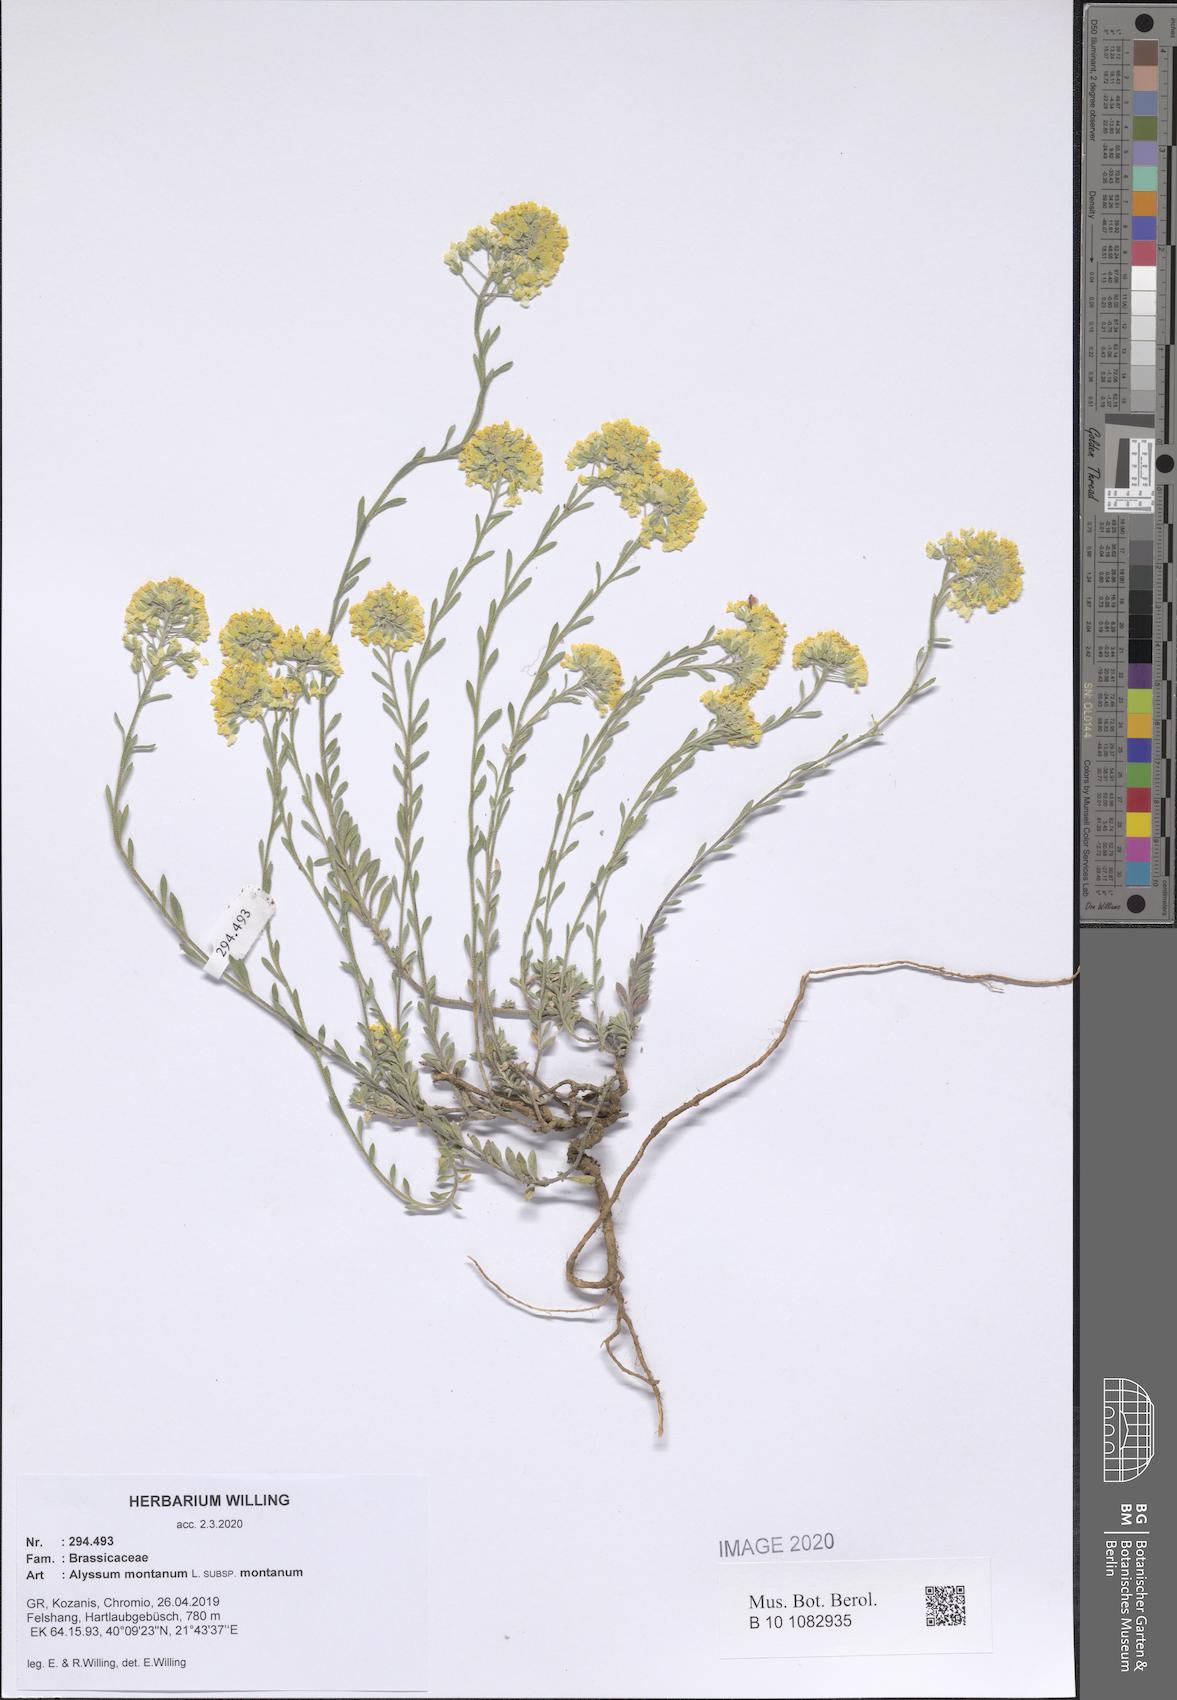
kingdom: Plantae
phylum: Tracheophyta
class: Magnoliopsida
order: Brassicales
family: Brassicaceae
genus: Alyssum
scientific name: Alyssum montanum
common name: Mountain alison
